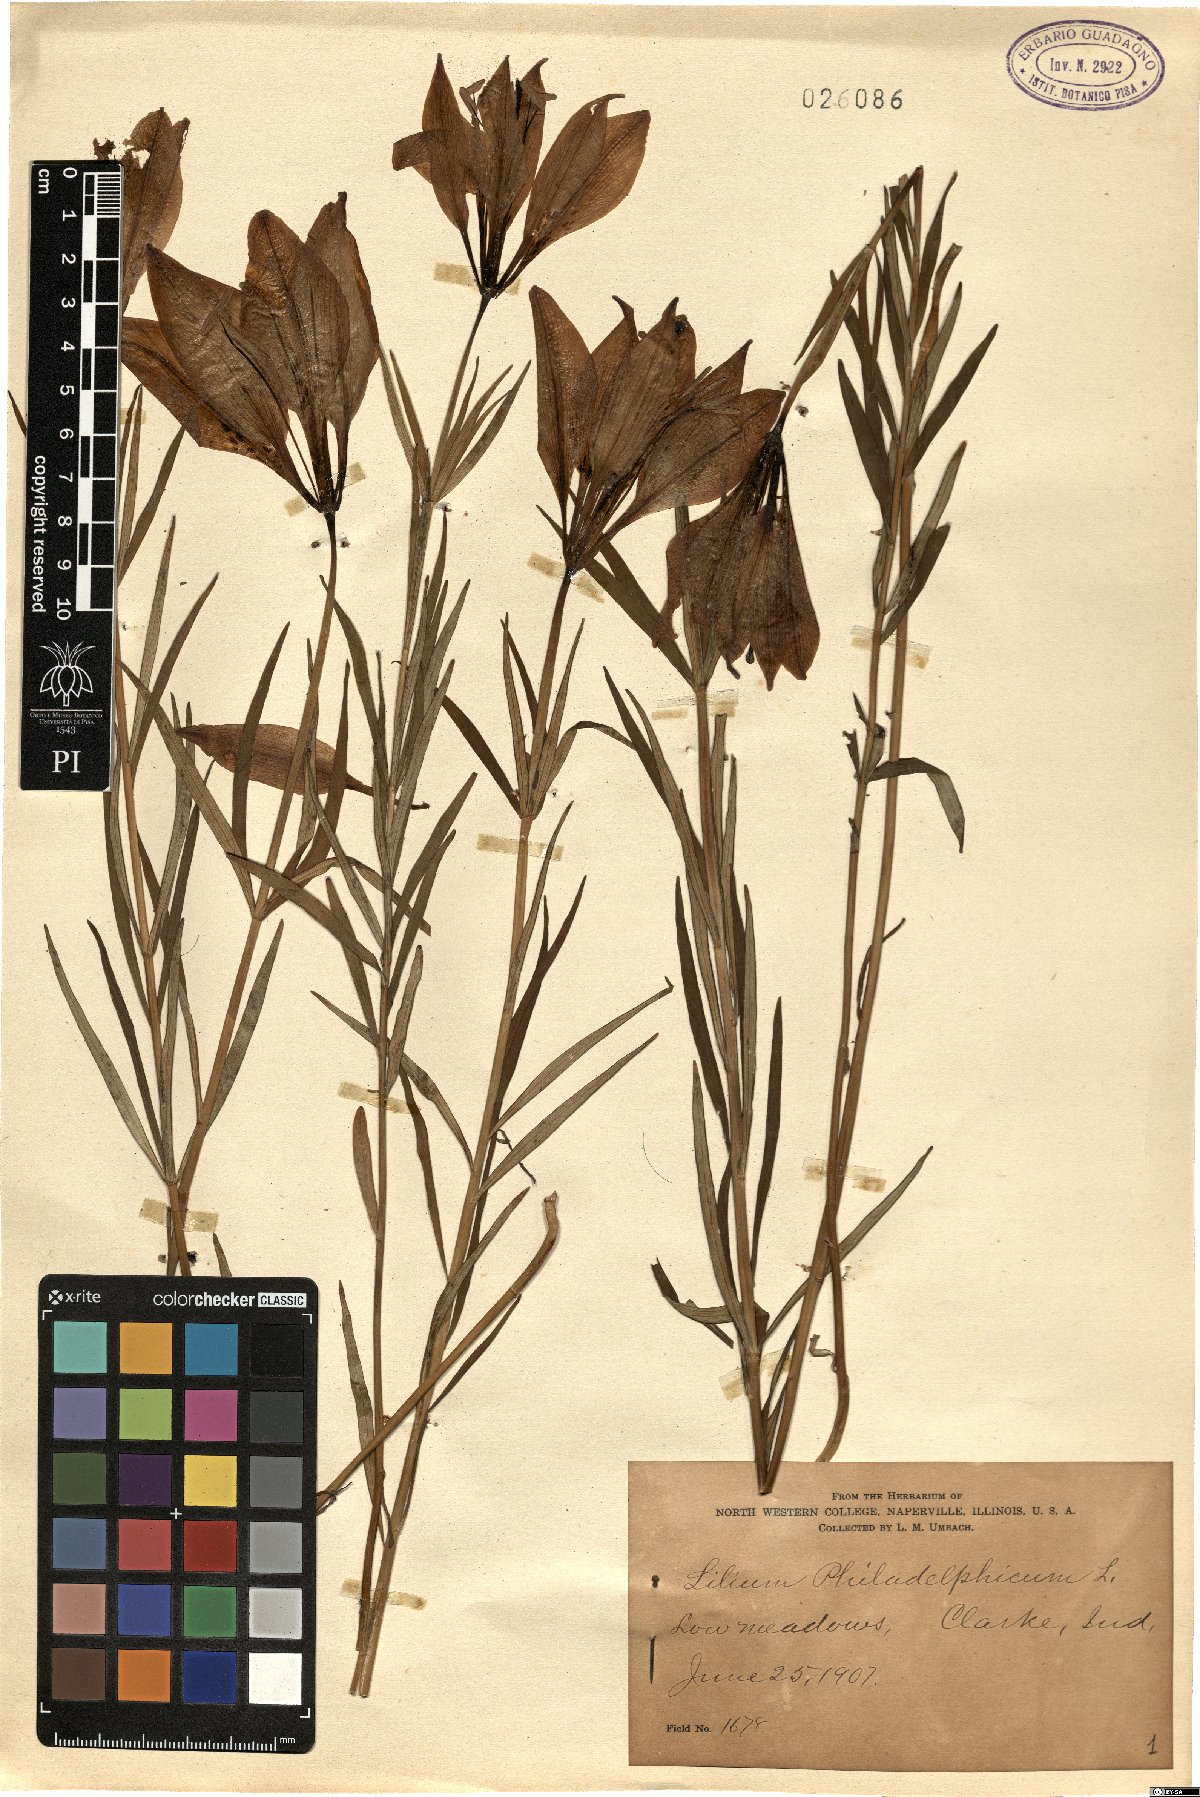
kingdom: Plantae
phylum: Tracheophyta
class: Liliopsida
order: Liliales
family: Liliaceae
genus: Lilium
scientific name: Lilium philadelphicum
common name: Red lily
